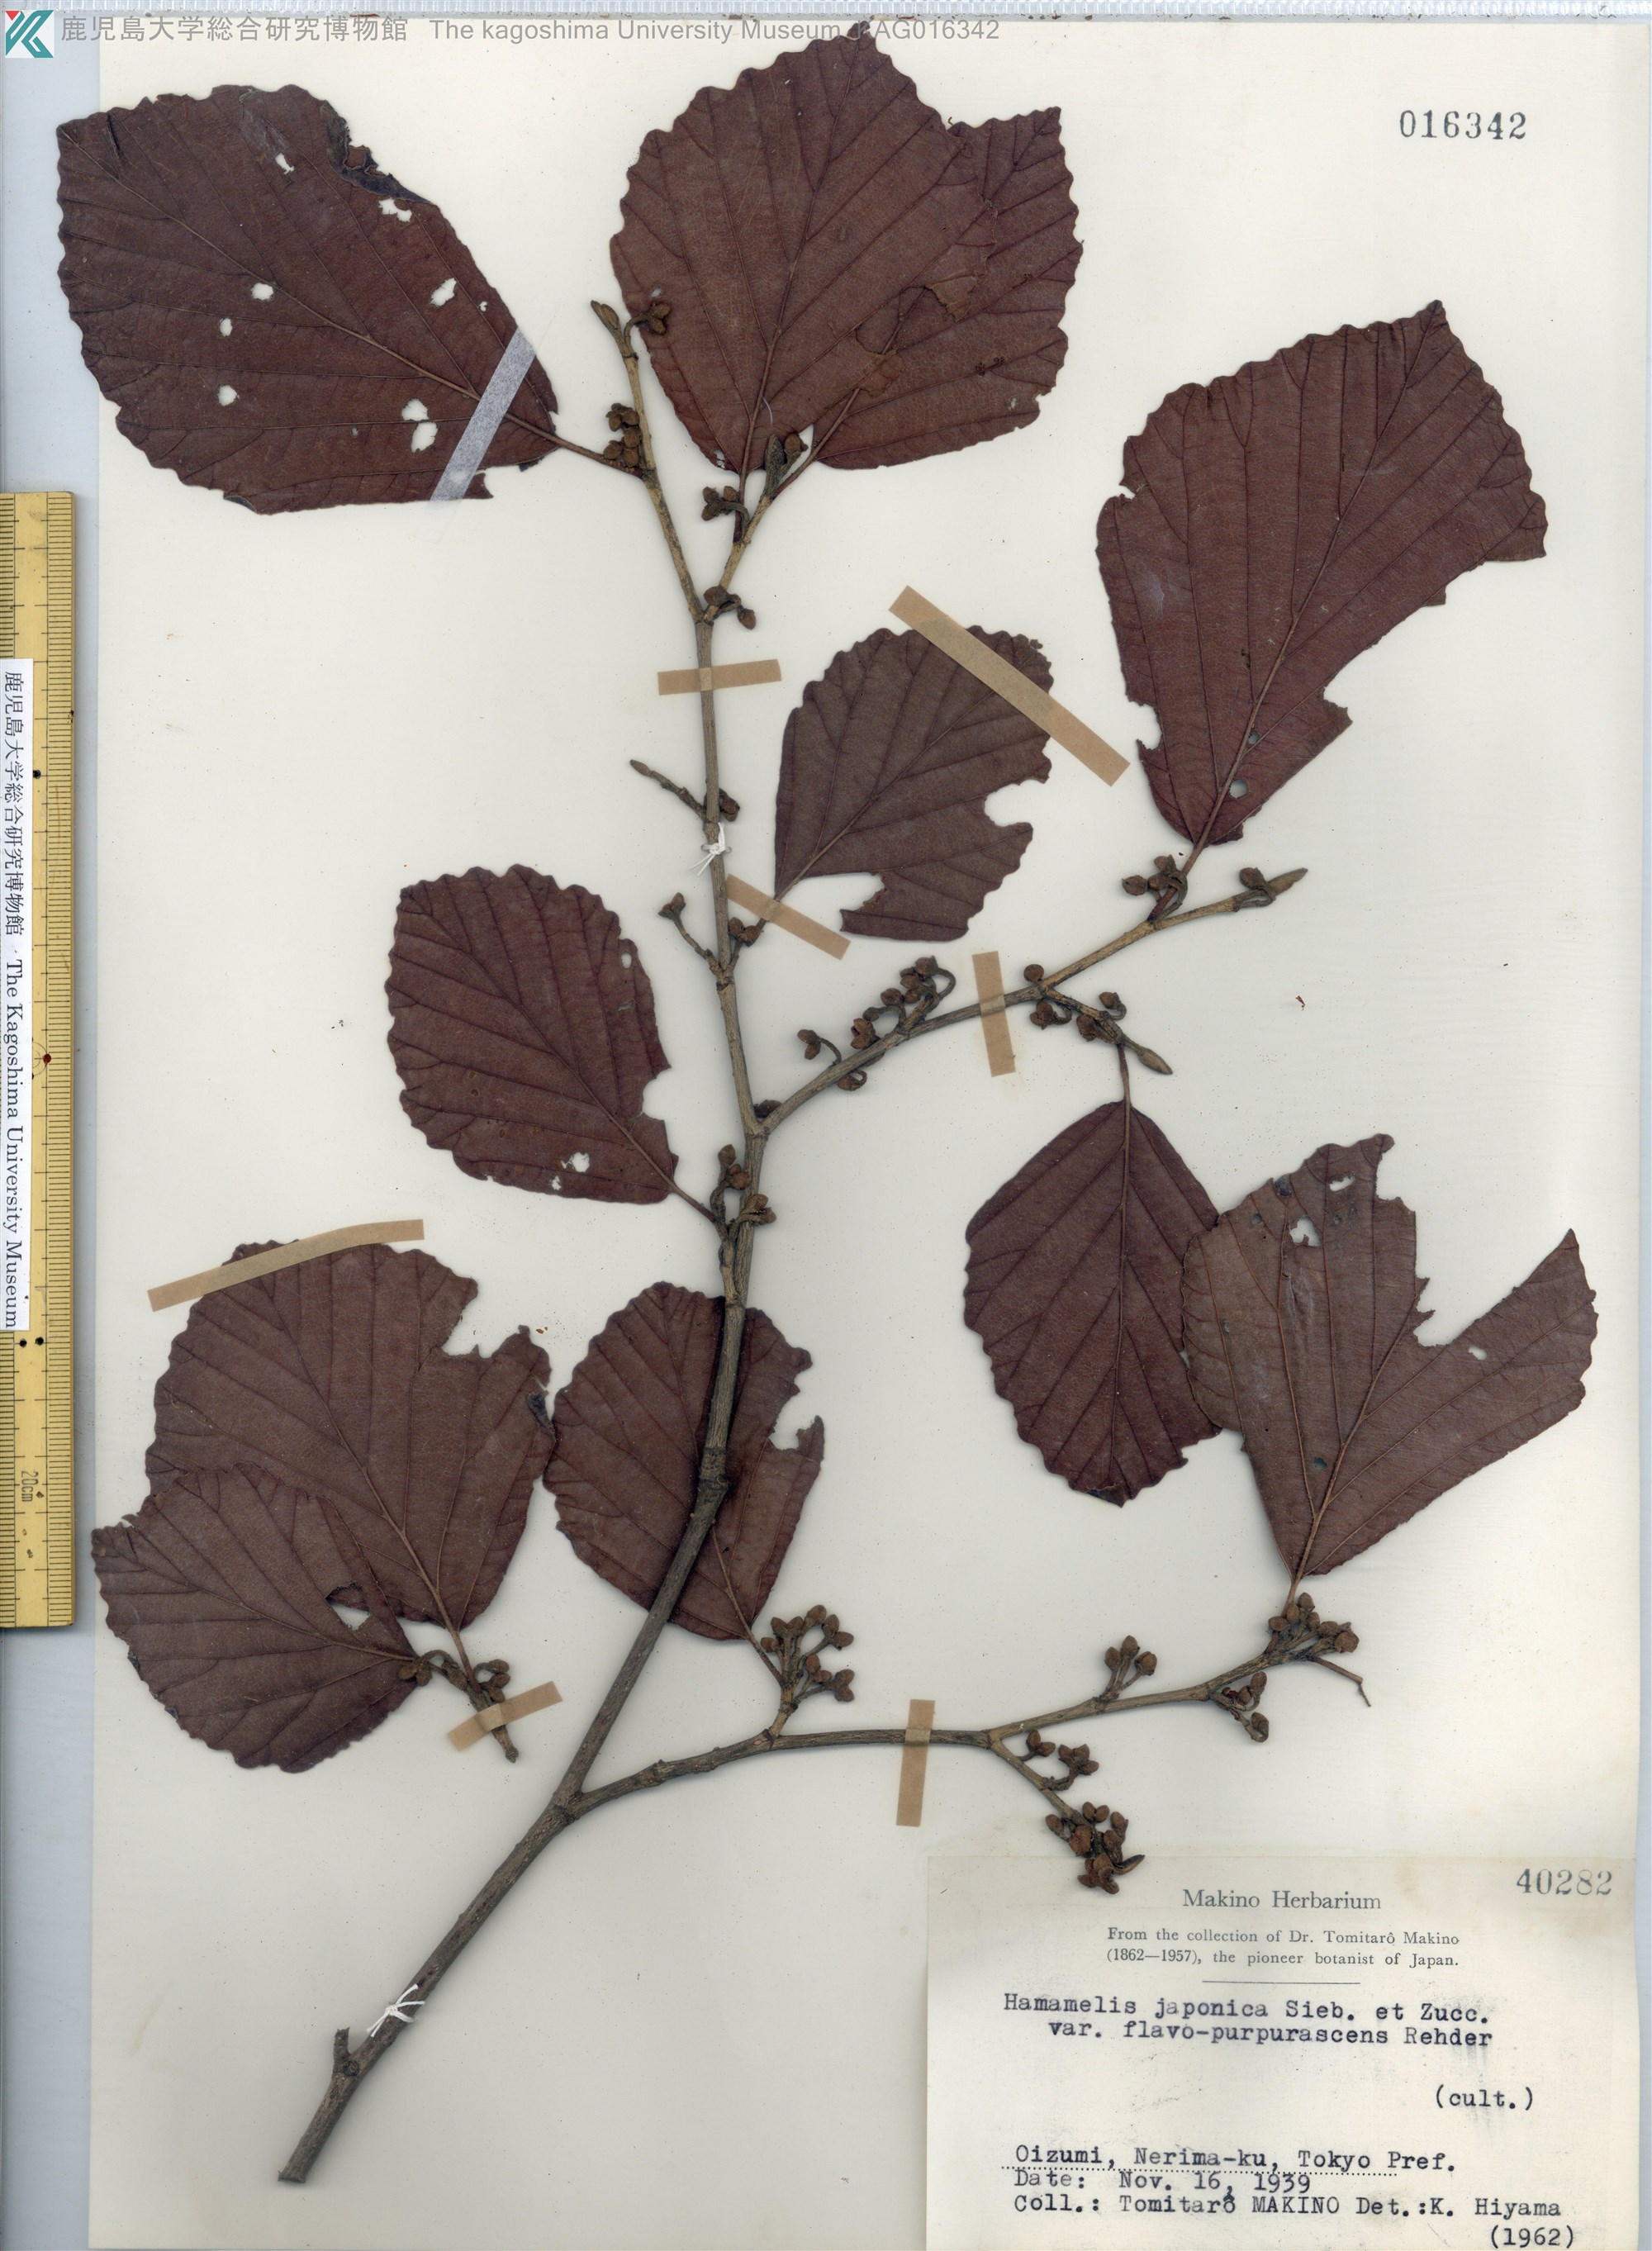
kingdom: Plantae
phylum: Tracheophyta
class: Magnoliopsida
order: Saxifragales
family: Hamamelidaceae
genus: Hamamelis
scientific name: Hamamelis japonica
